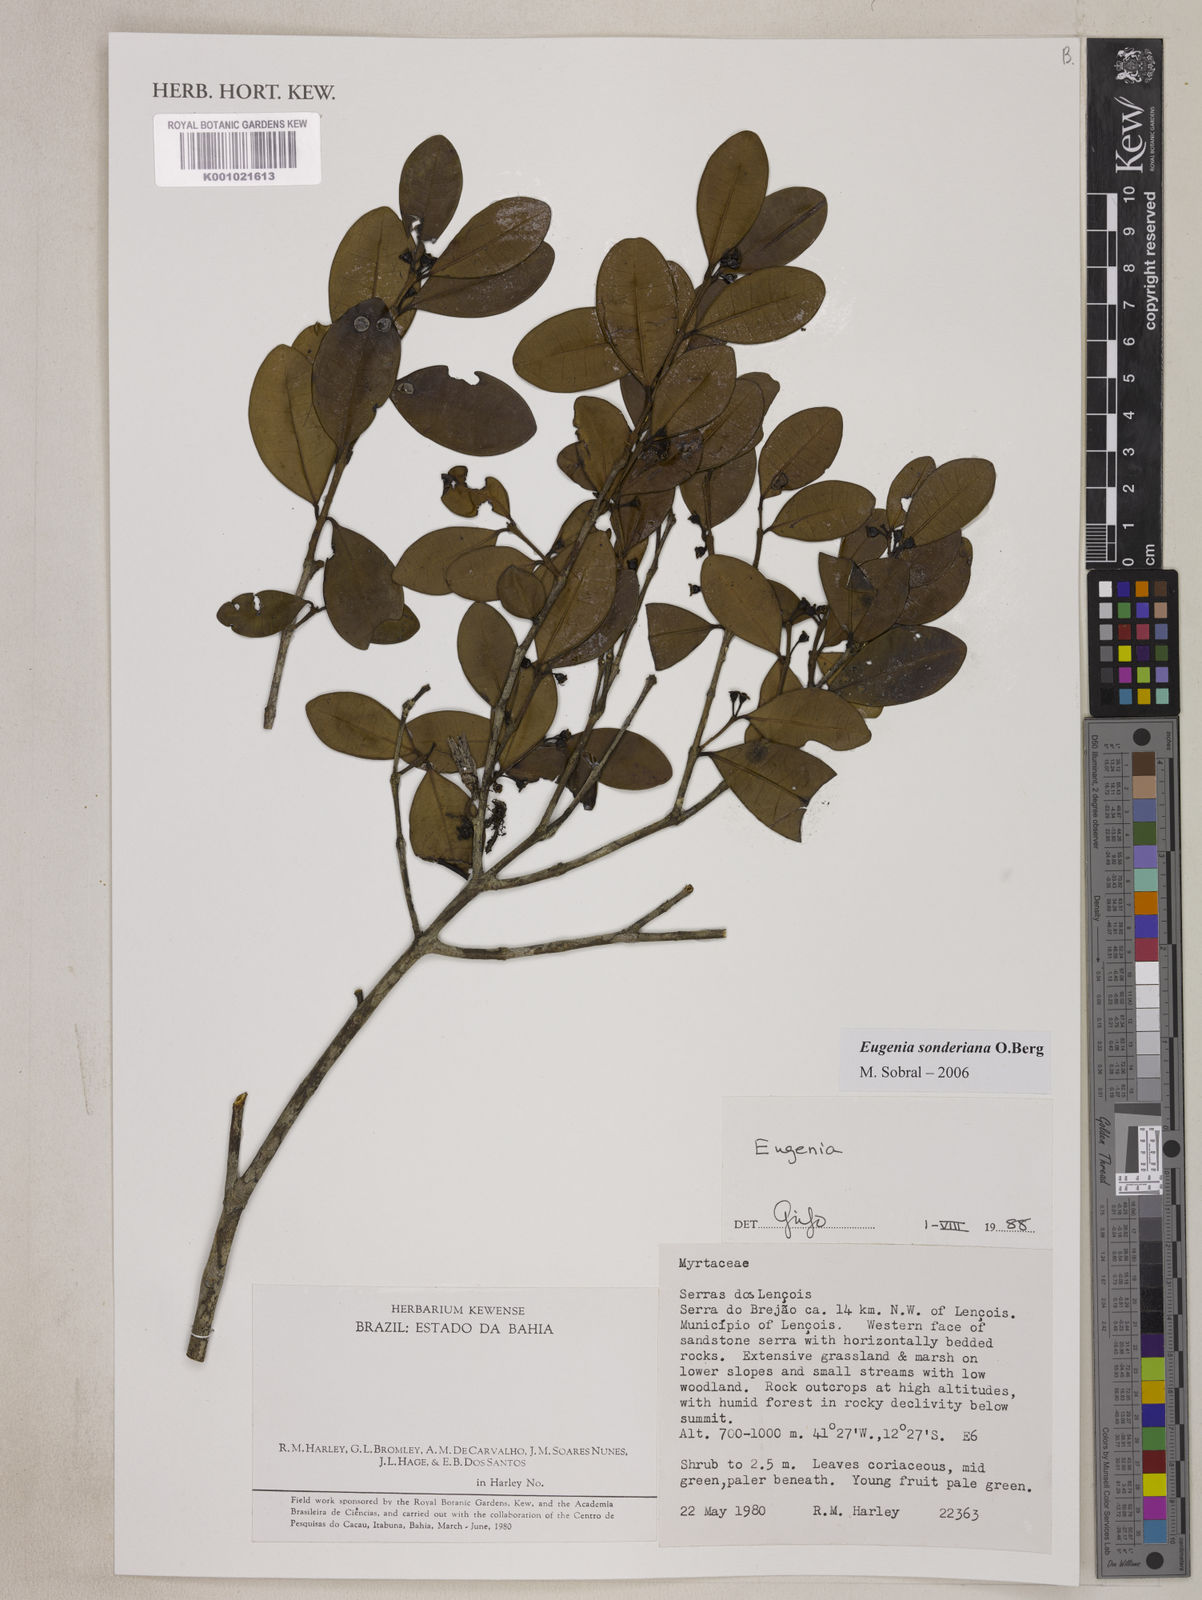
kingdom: Plantae
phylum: Tracheophyta
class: Magnoliopsida
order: Myrtales
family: Myrtaceae
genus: Eugenia
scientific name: Eugenia sonderiana
